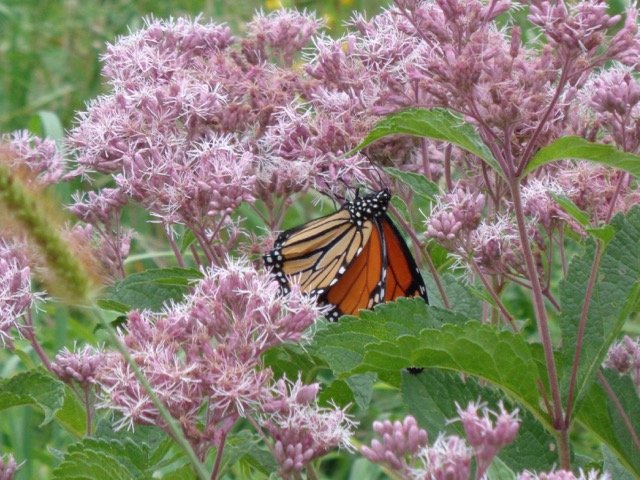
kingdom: Animalia
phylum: Arthropoda
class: Insecta
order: Lepidoptera
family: Nymphalidae
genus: Danaus
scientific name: Danaus plexippus
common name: Monarch
